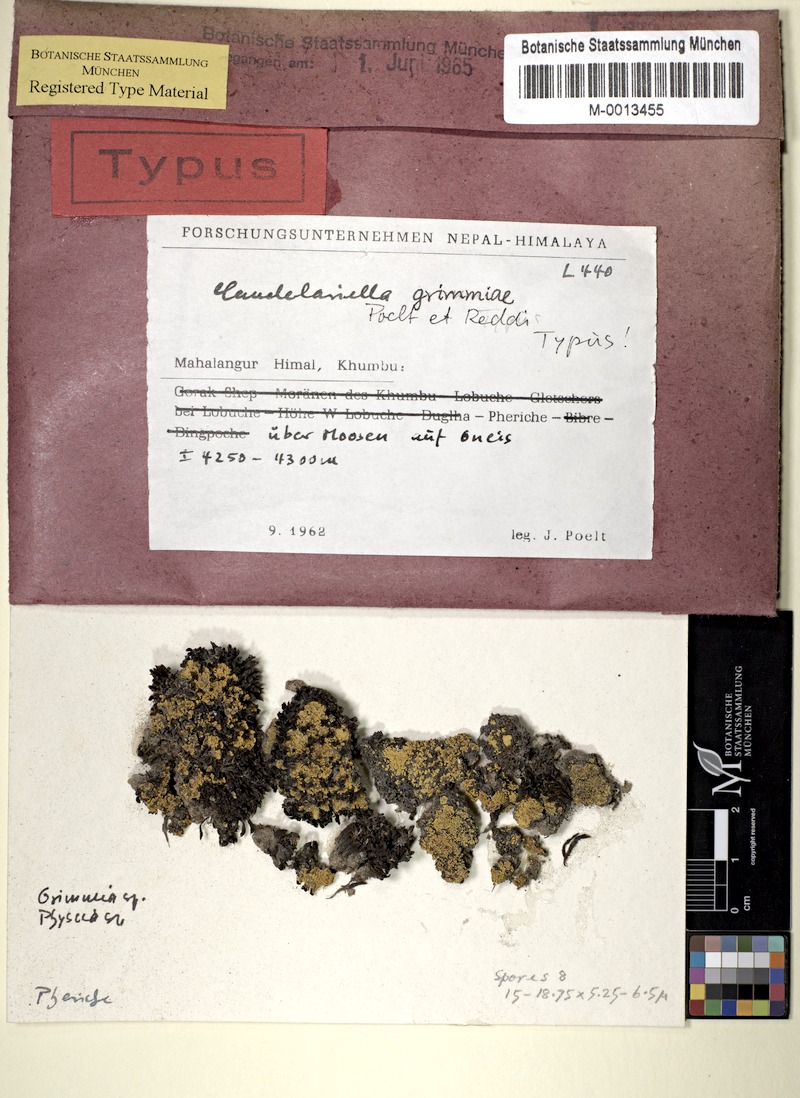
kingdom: Fungi
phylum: Ascomycota
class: Candelariomycetes
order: Candelariales
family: Candelariaceae
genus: Candelariella
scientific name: Candelariella grimmiae
